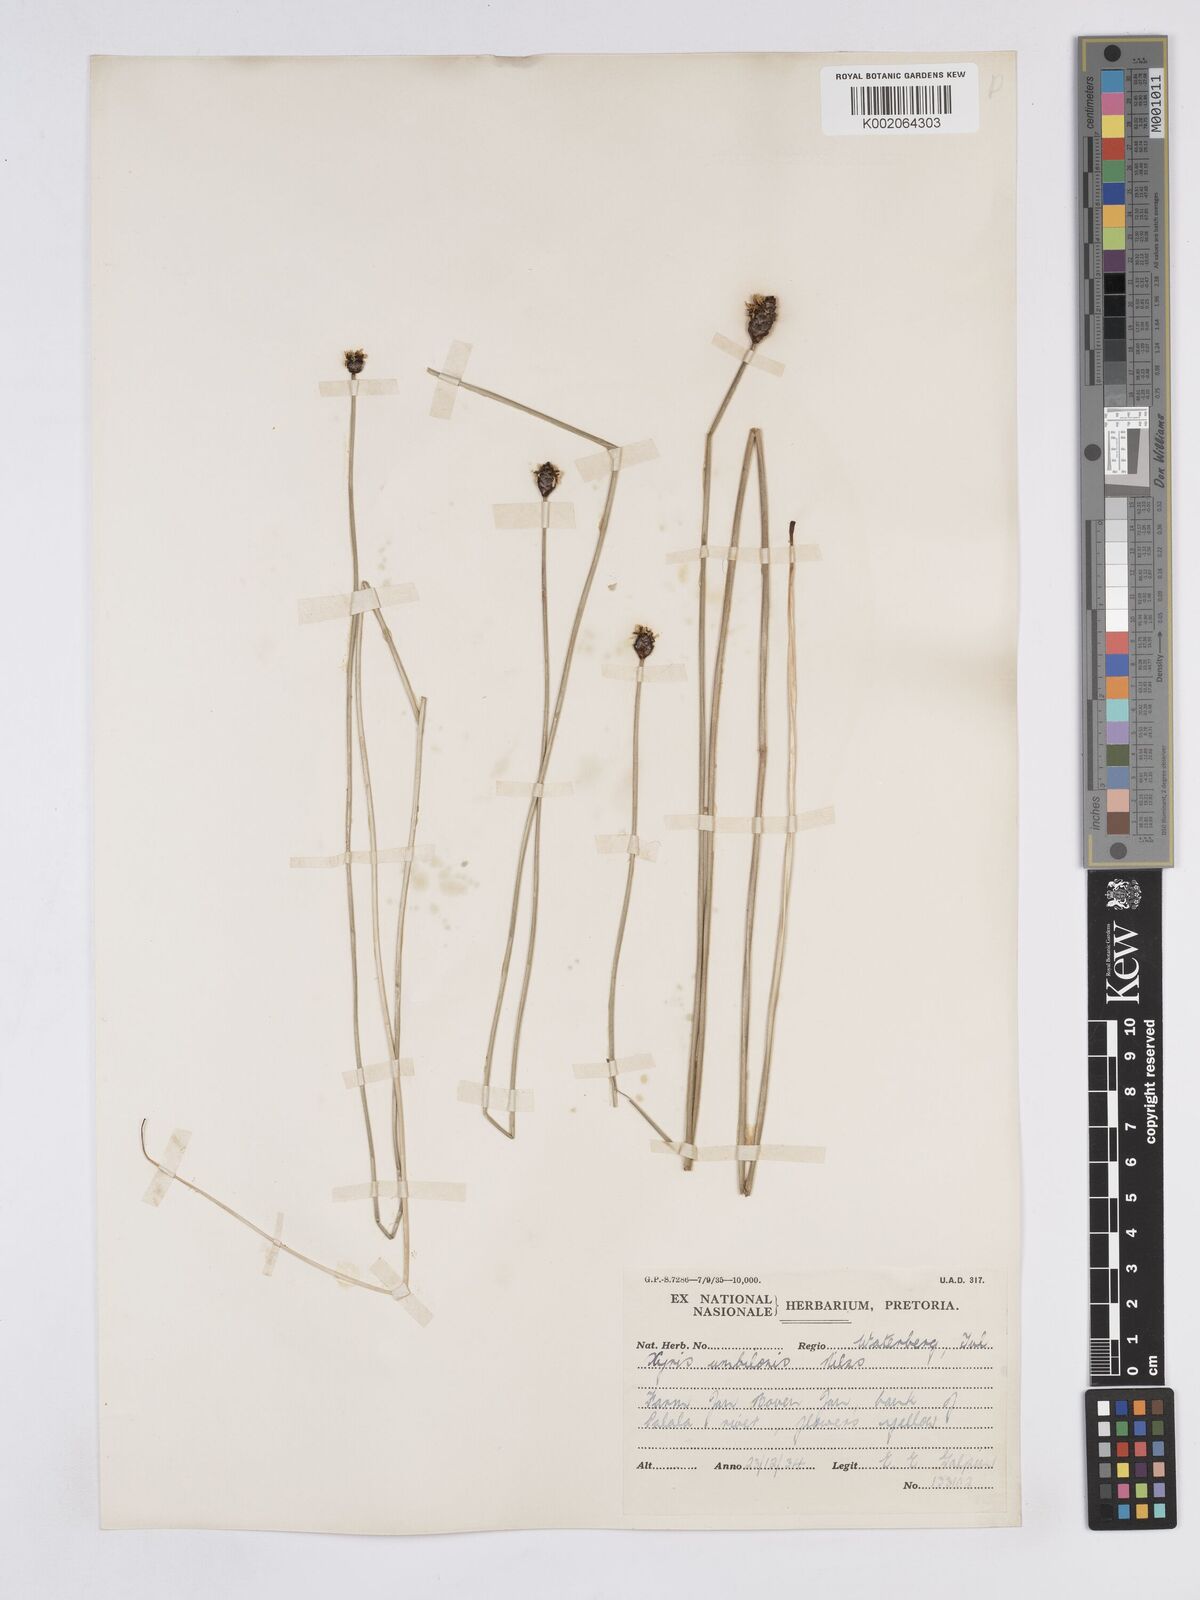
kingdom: Plantae
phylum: Tracheophyta
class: Liliopsida
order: Poales
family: Xyridaceae
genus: Xyris
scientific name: Xyris congensis
